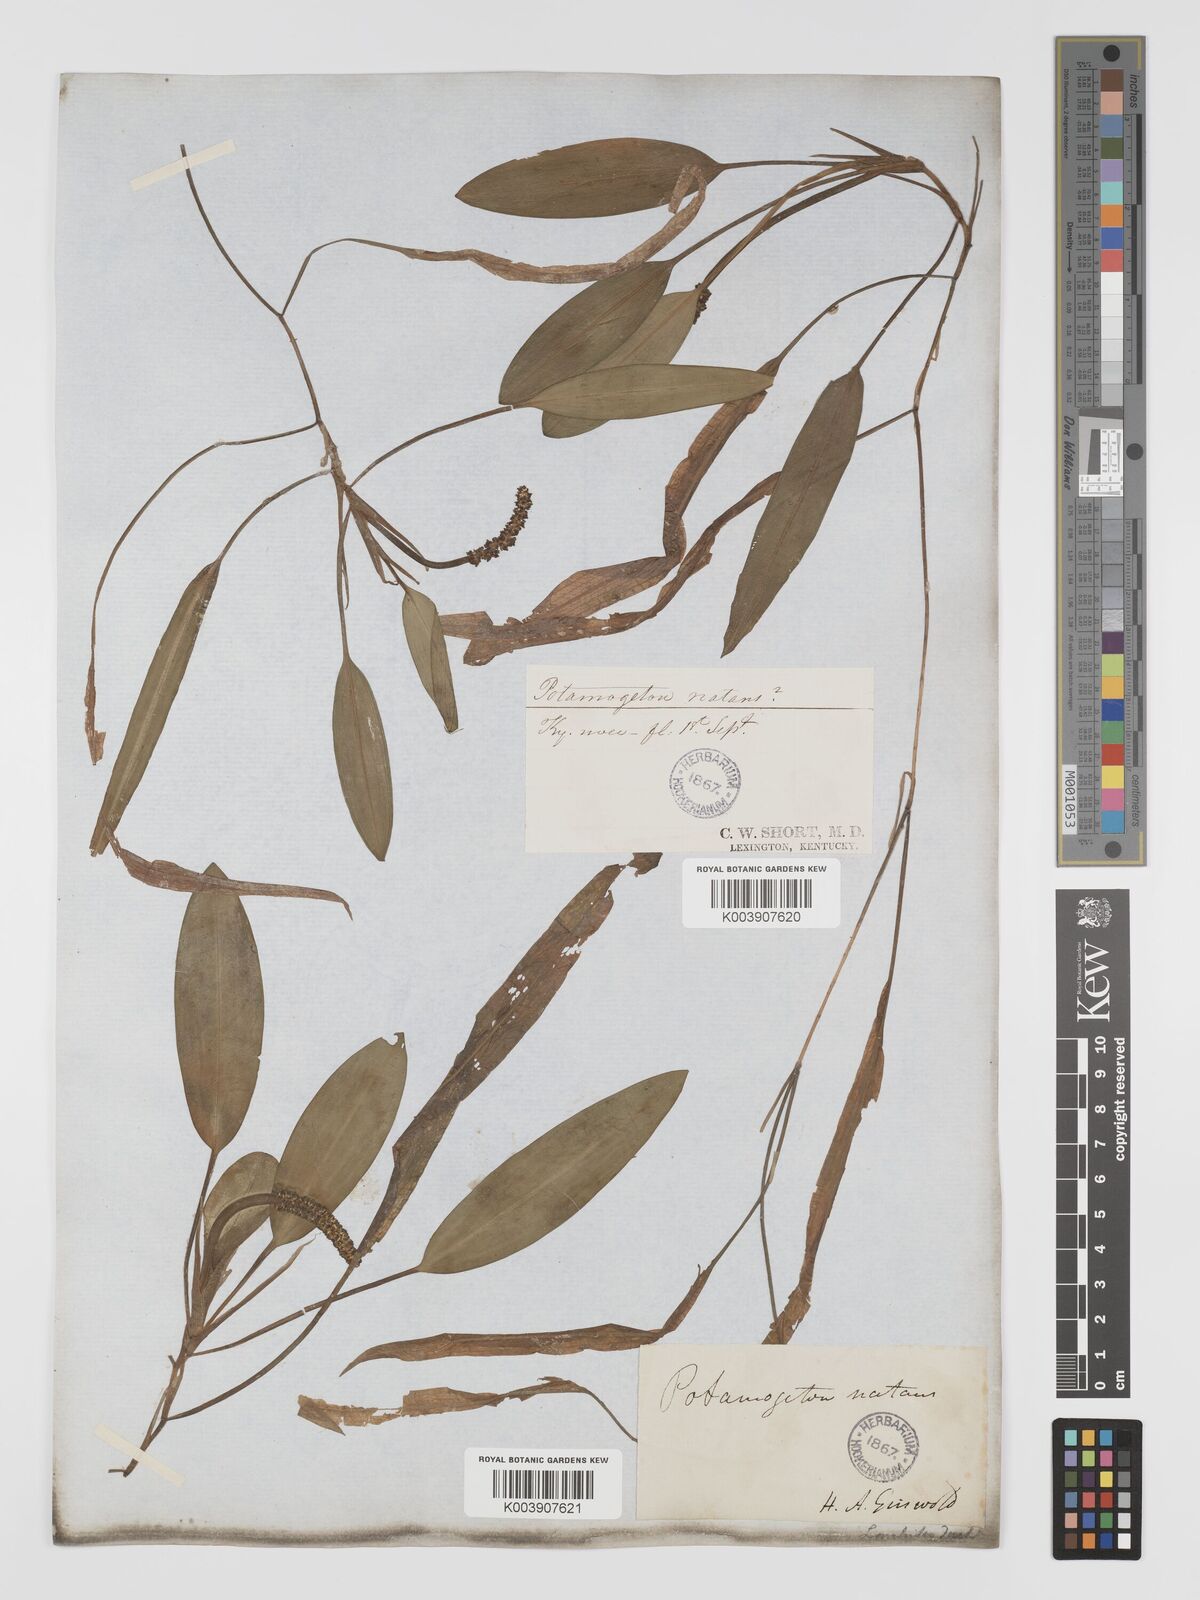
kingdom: Plantae
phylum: Tracheophyta
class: Liliopsida
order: Alismatales
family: Potamogetonaceae
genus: Potamogeton
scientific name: Potamogeton nodosus
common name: Loddon pondweed
